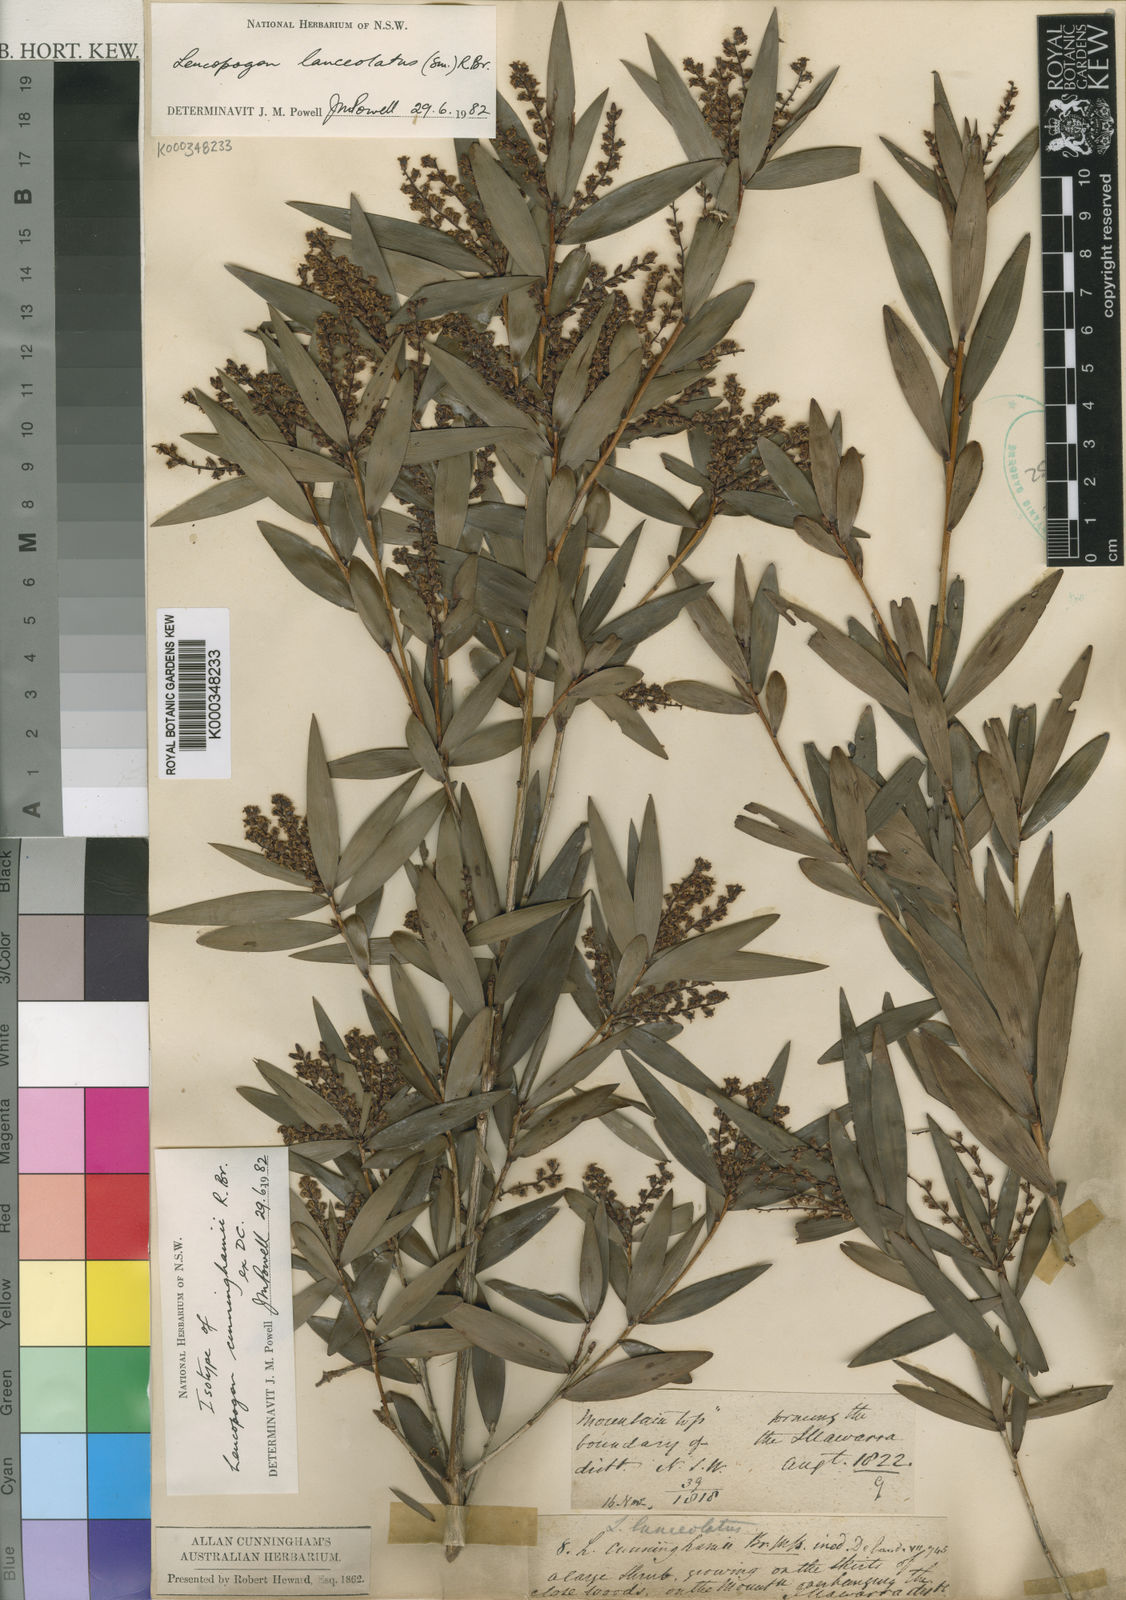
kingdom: Plantae
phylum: Tracheophyta
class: Magnoliopsida
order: Ericales
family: Ericaceae
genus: Leucopogon
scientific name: Leucopogon lanceolatus
